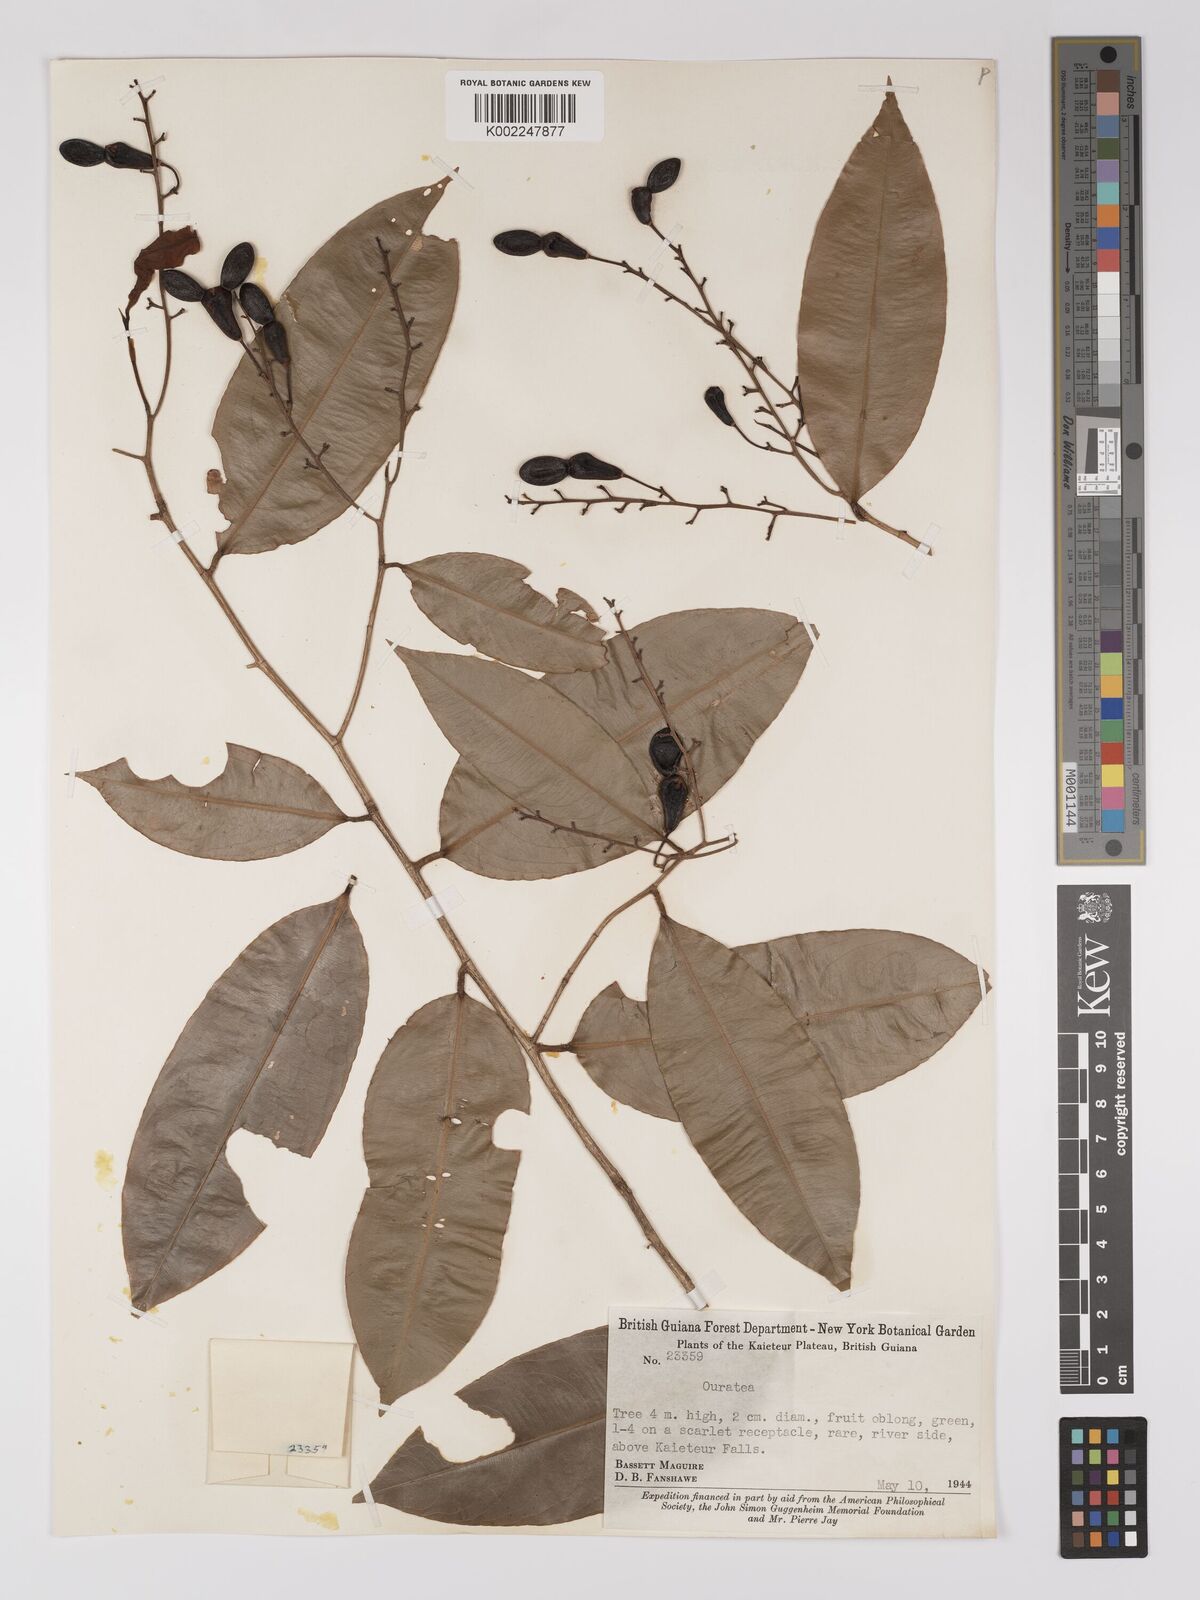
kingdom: Plantae
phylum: Tracheophyta
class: Magnoliopsida
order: Malpighiales
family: Ochnaceae
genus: Ouratea
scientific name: Ouratea
